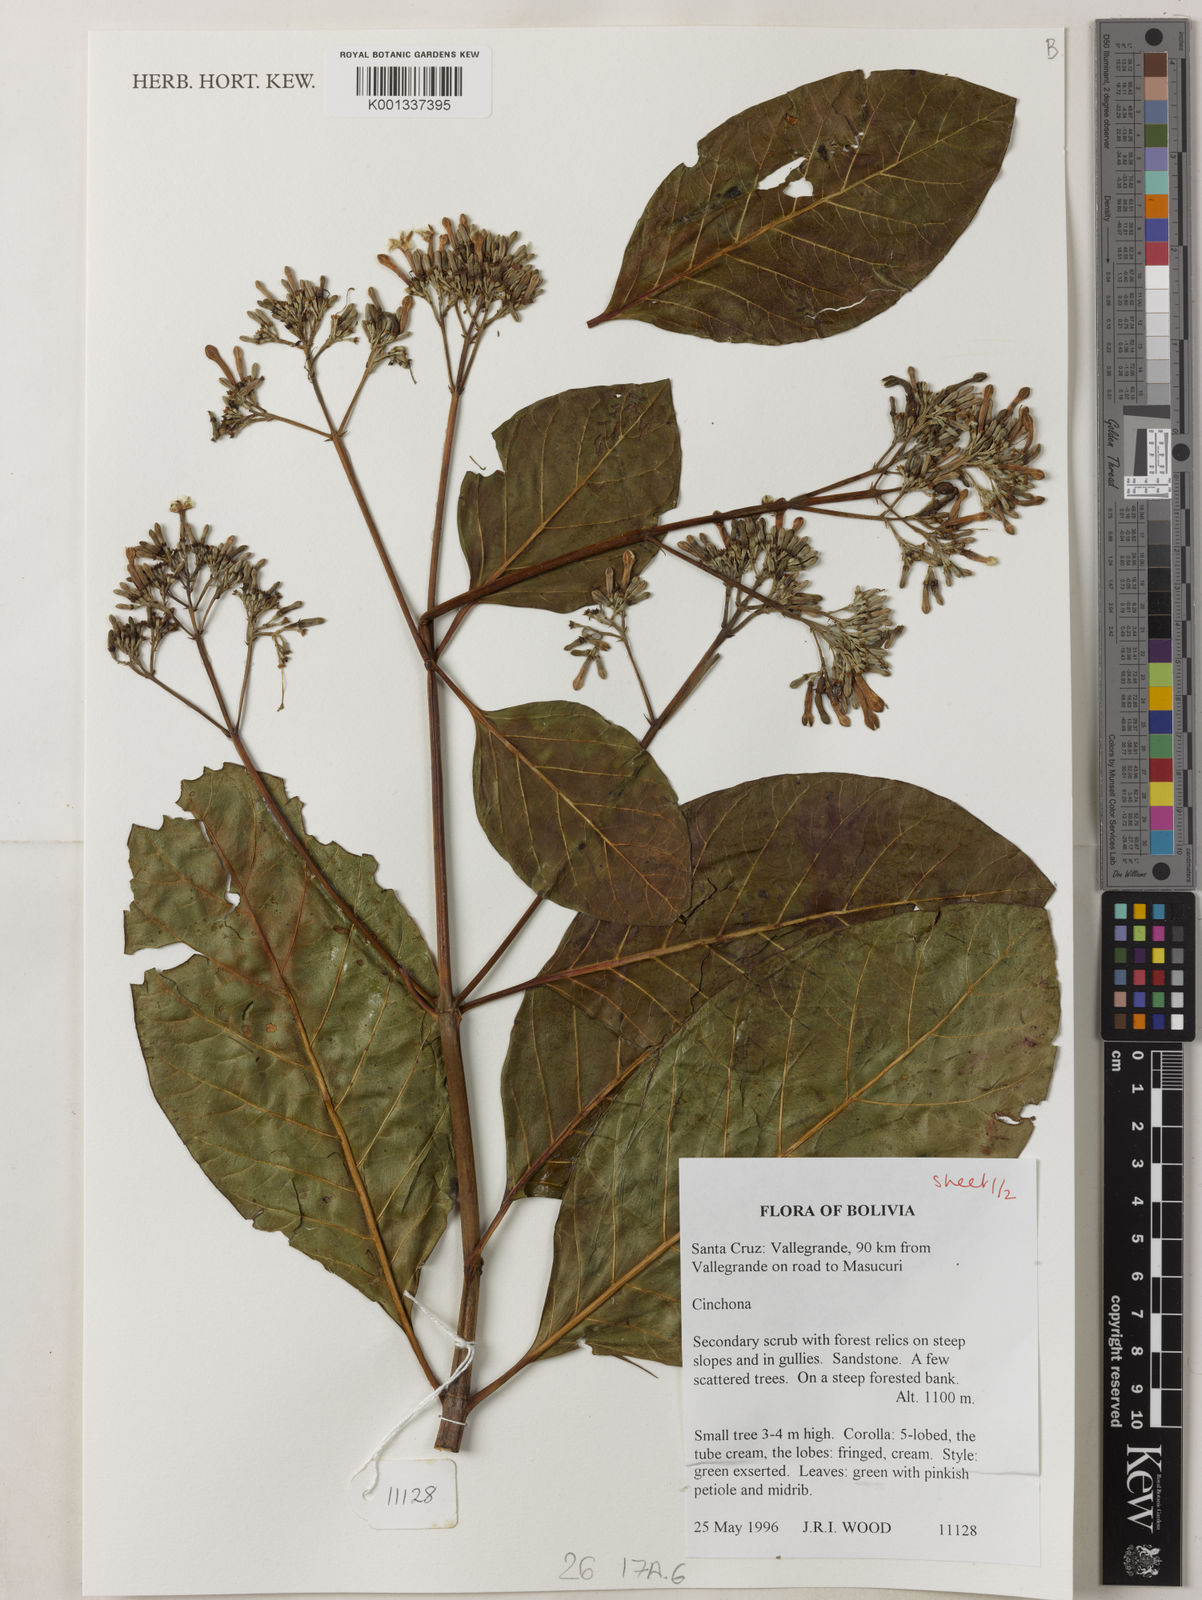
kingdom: Plantae
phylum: Tracheophyta
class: Magnoliopsida
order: Gentianales
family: Rubiaceae
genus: Cinchona
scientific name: Cinchona
